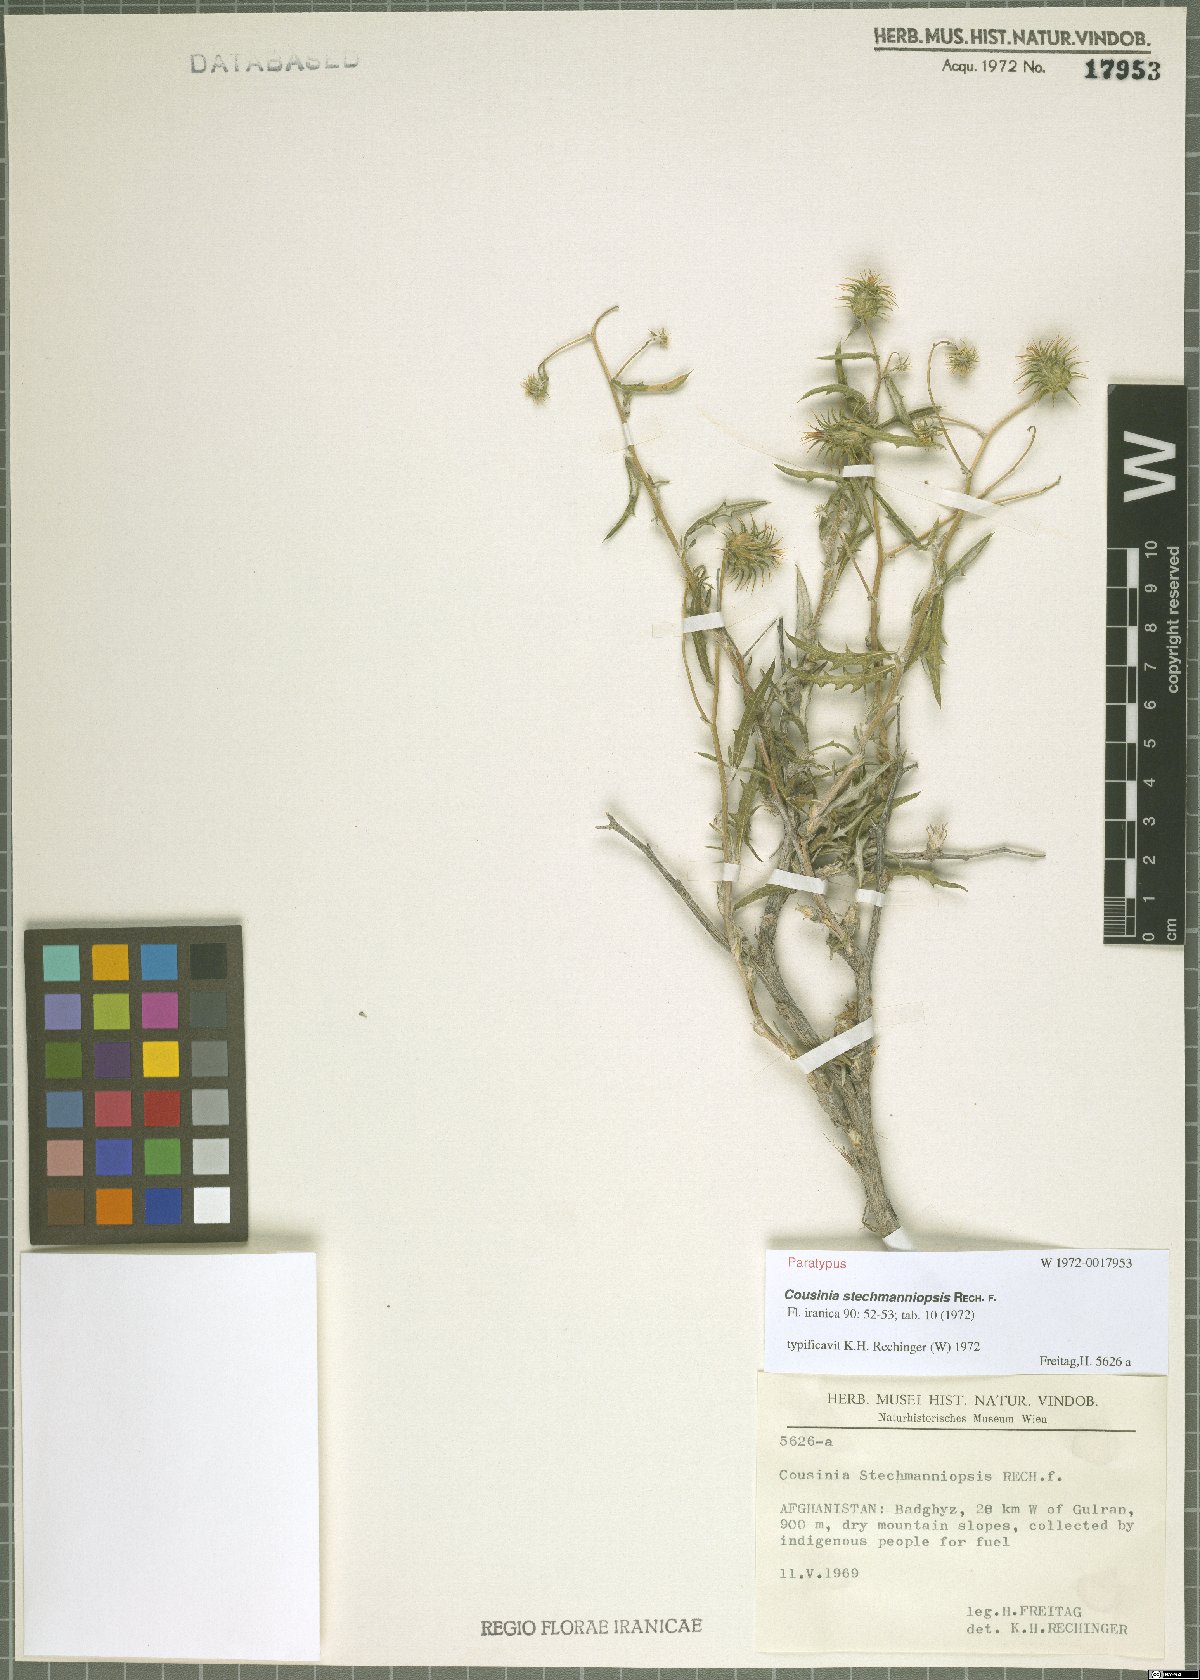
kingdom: Plantae
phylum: Tracheophyta
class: Magnoliopsida
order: Asterales
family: Asteraceae
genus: Cousinia
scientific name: Cousinia stechmanniopsis
